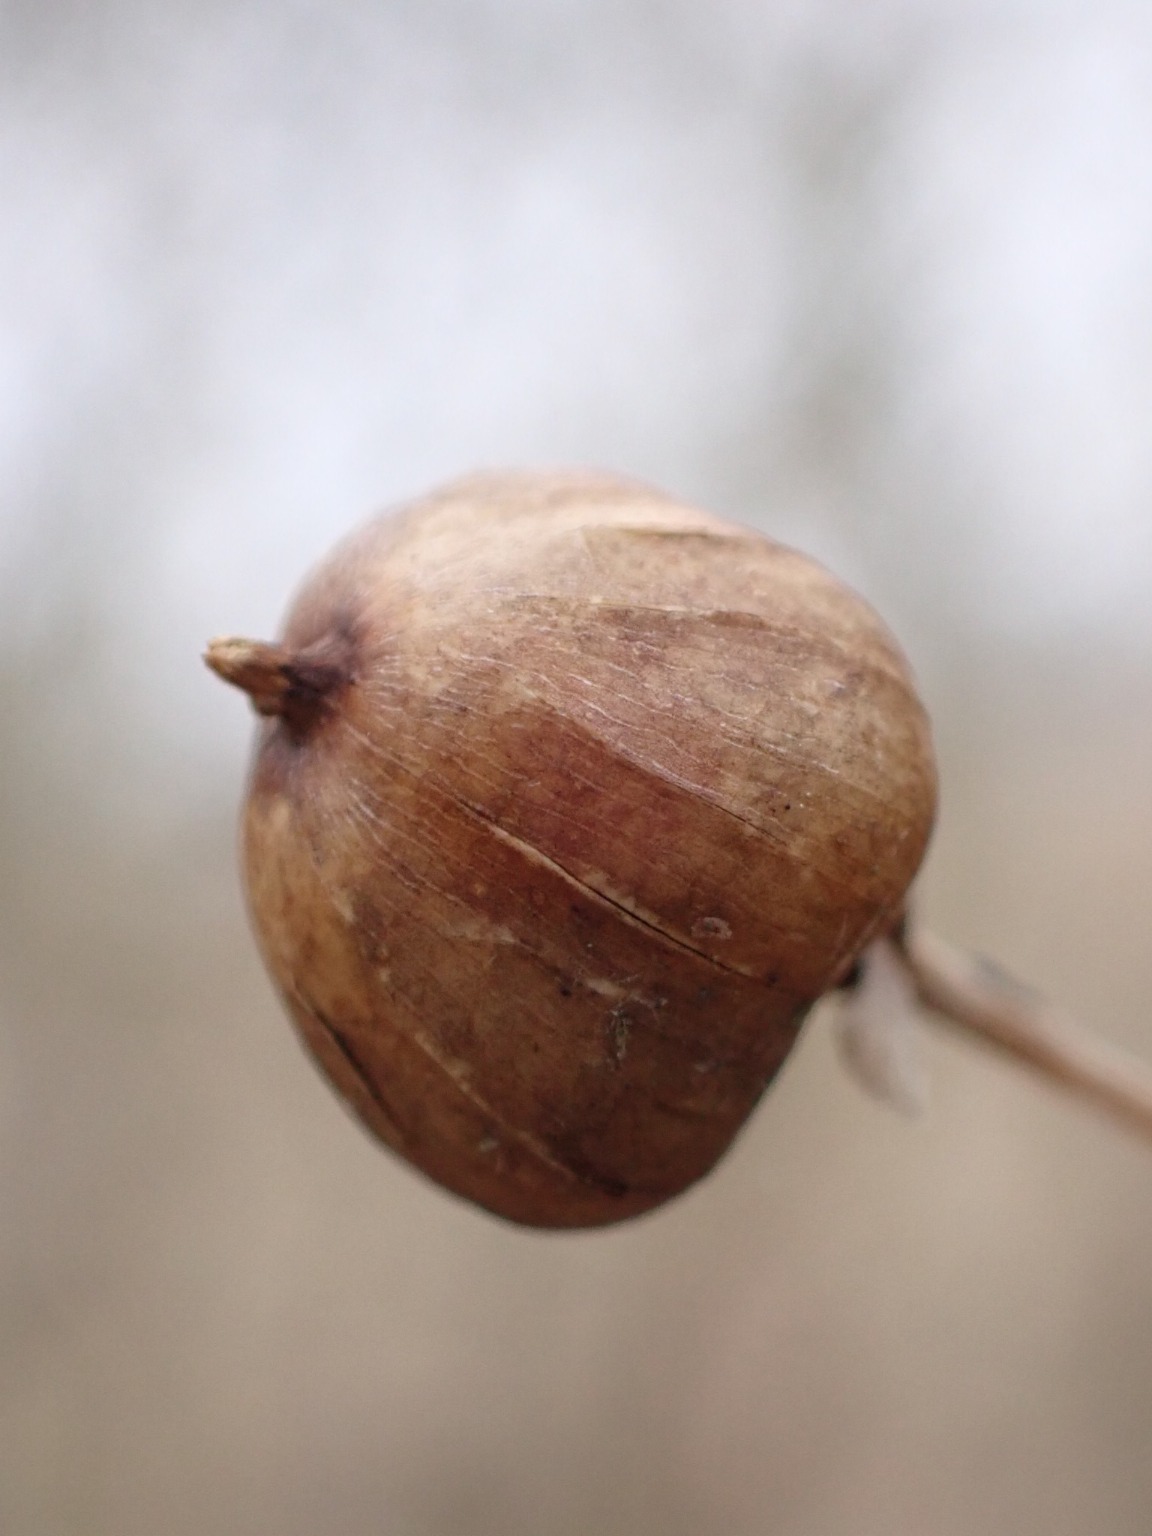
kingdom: Plantae
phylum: Tracheophyta
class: Magnoliopsida
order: Solanales
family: Convolvulaceae
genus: Calystegia
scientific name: Calystegia sepium
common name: Gærde-snerle
